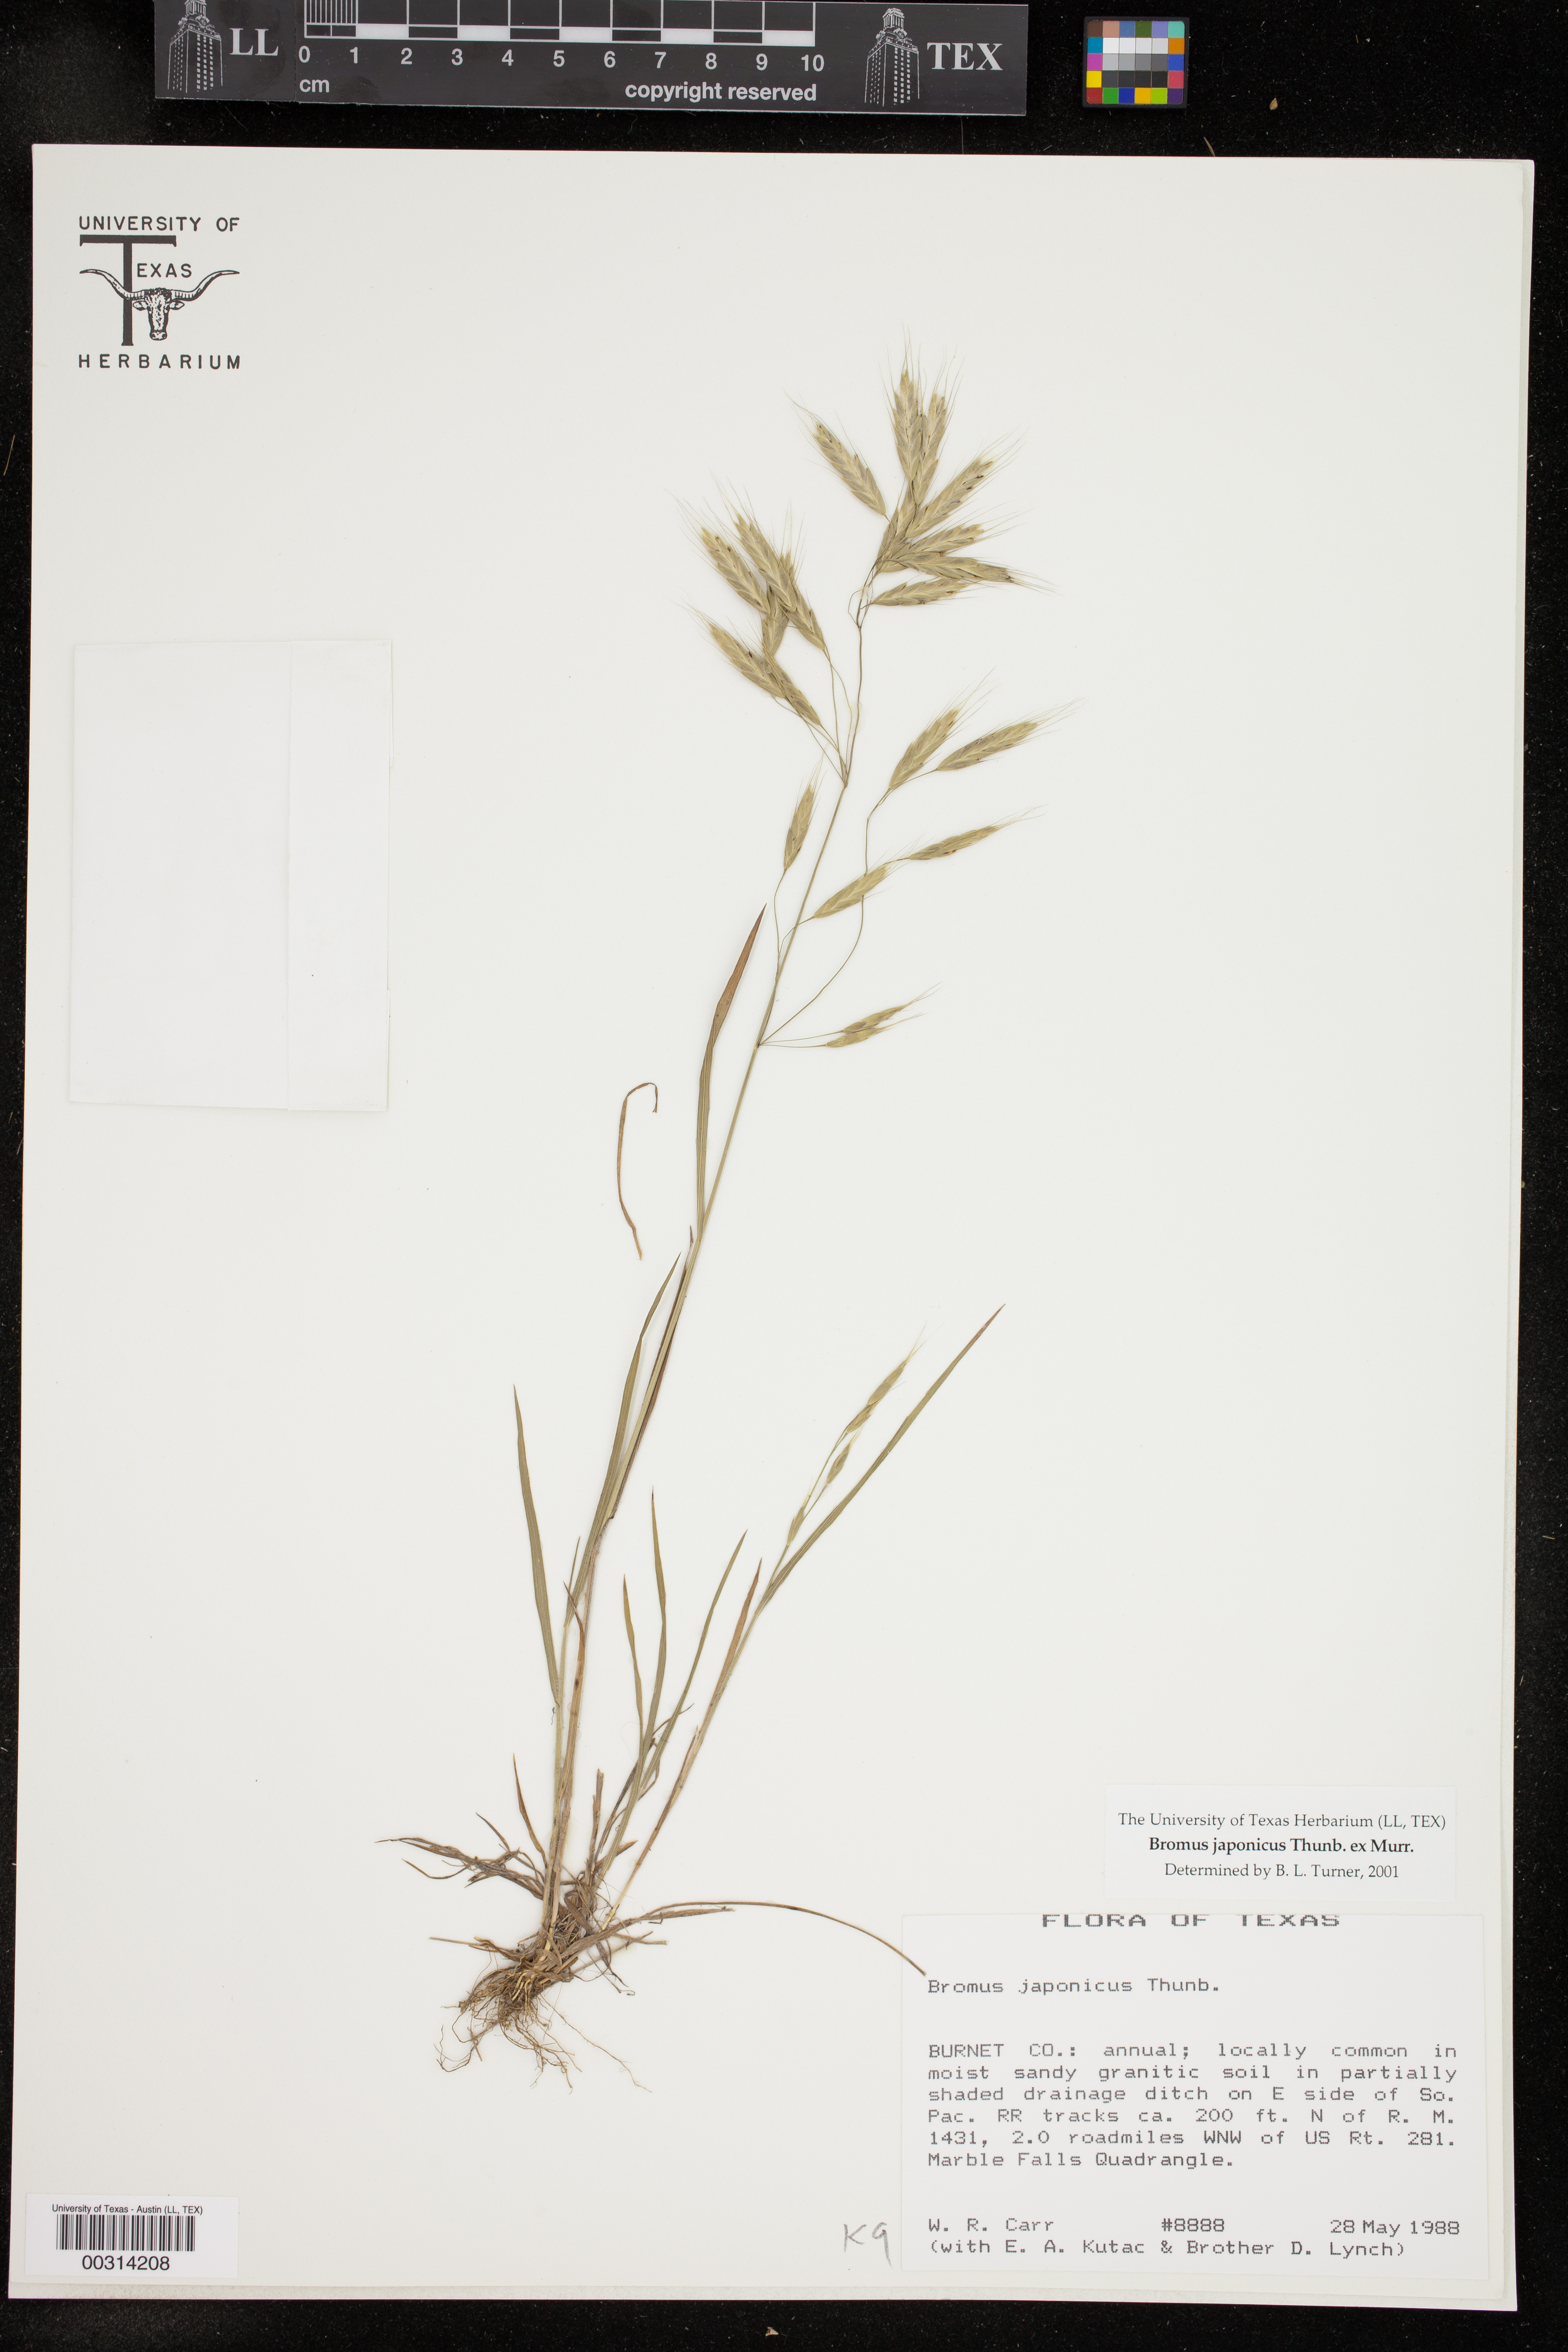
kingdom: Plantae
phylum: Tracheophyta
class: Liliopsida
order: Poales
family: Poaceae
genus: Bromus
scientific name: Bromus japonicus
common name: Japanese brome
